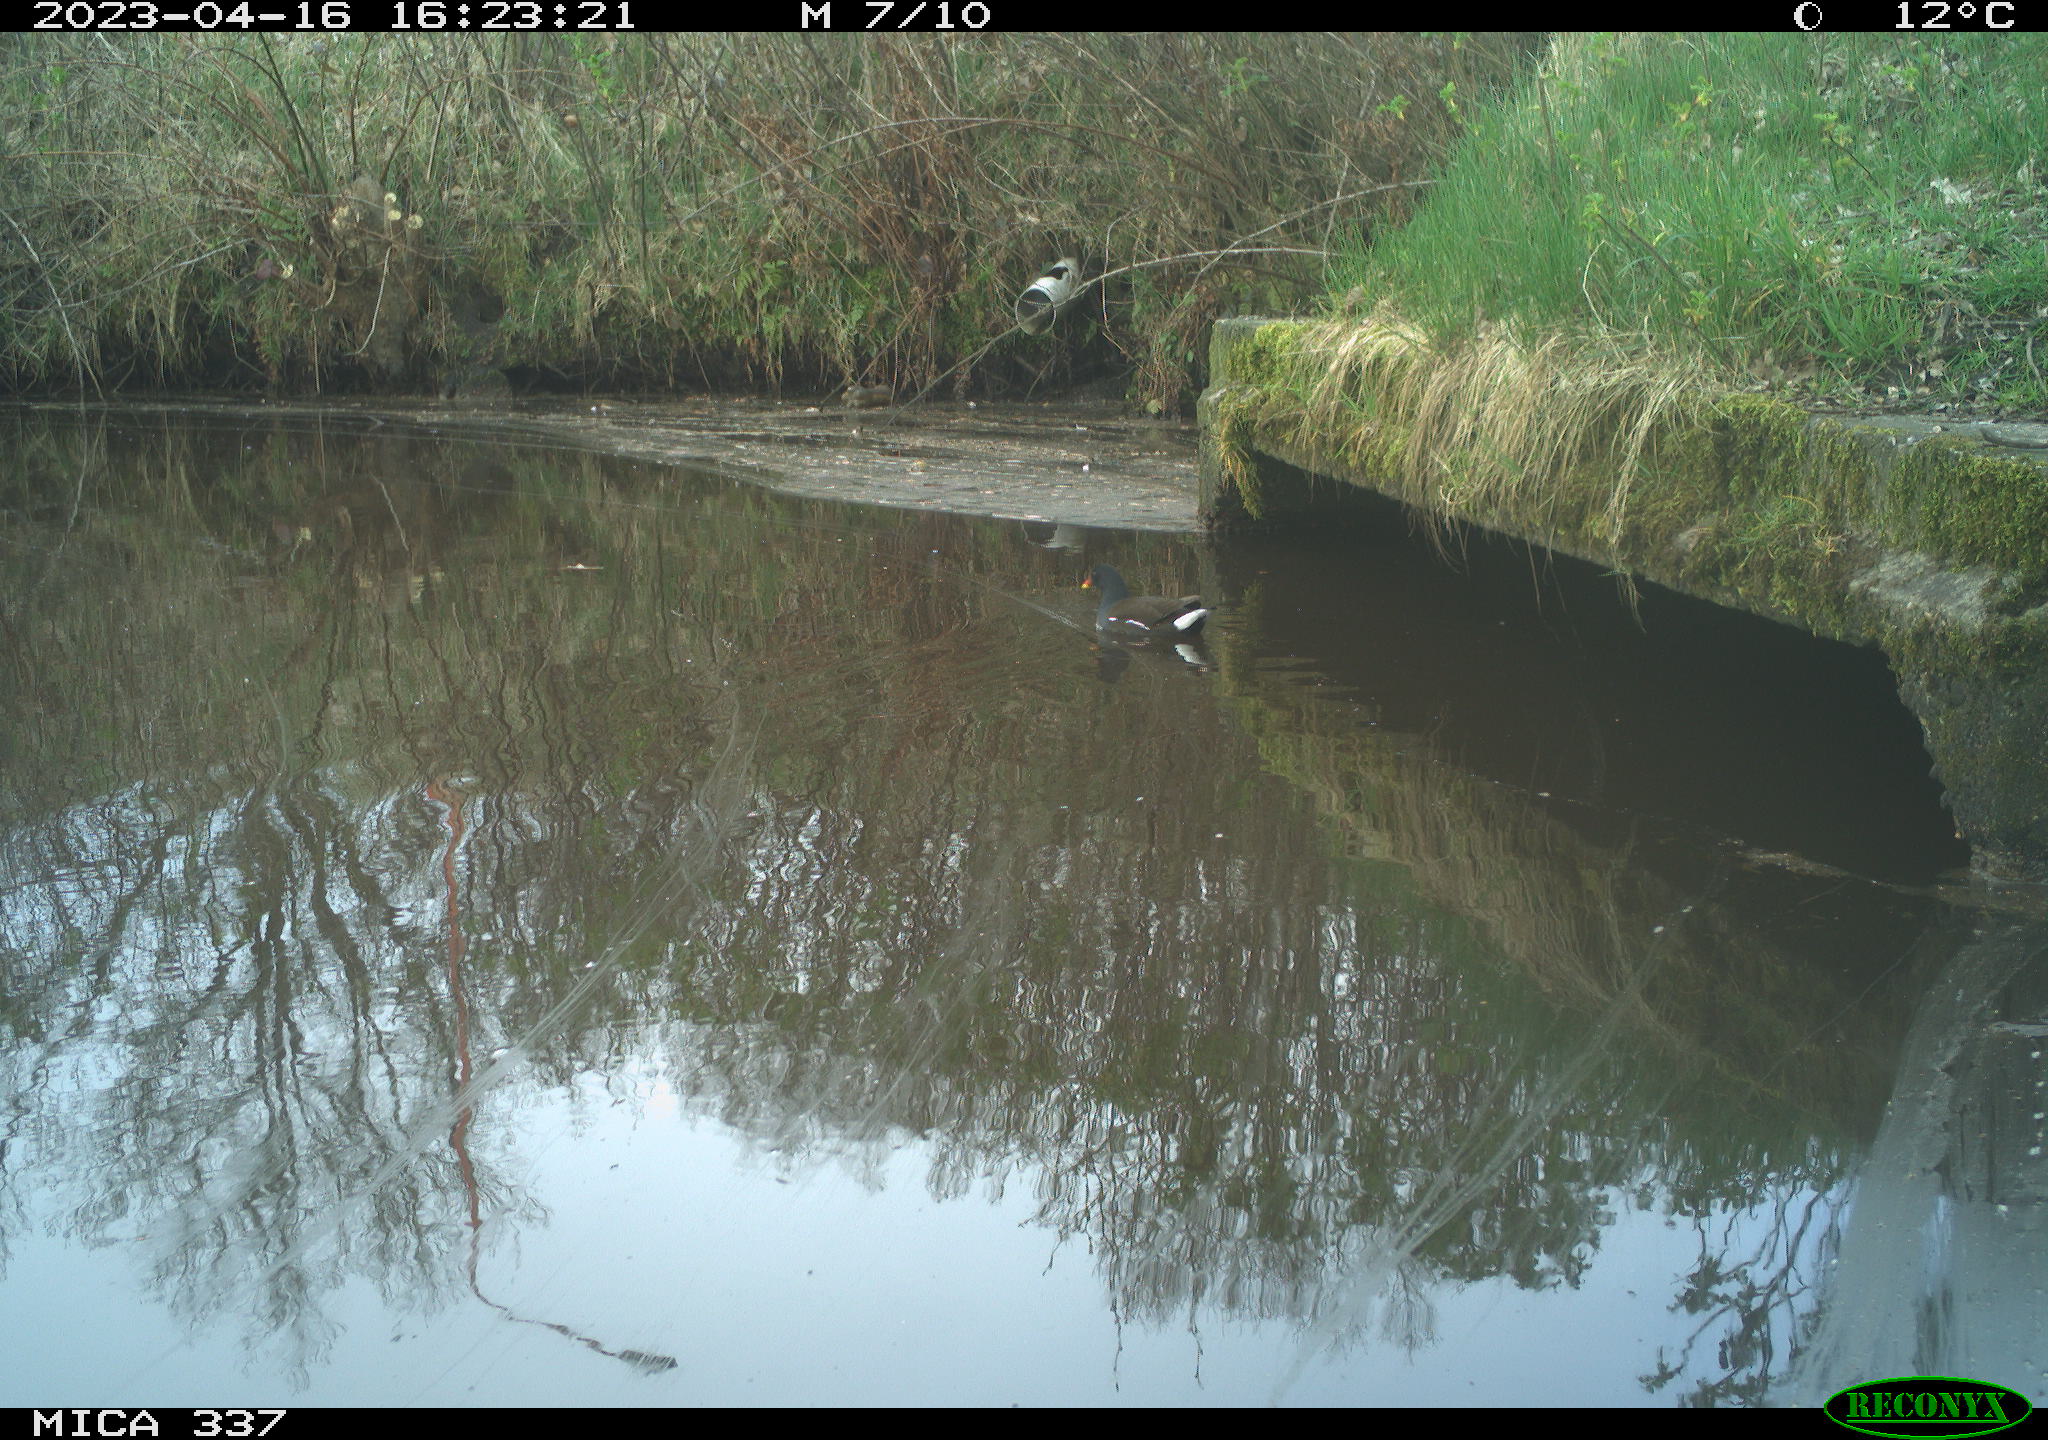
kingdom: Animalia
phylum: Chordata
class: Aves
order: Gruiformes
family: Rallidae
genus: Gallinula
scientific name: Gallinula chloropus
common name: Common moorhen
